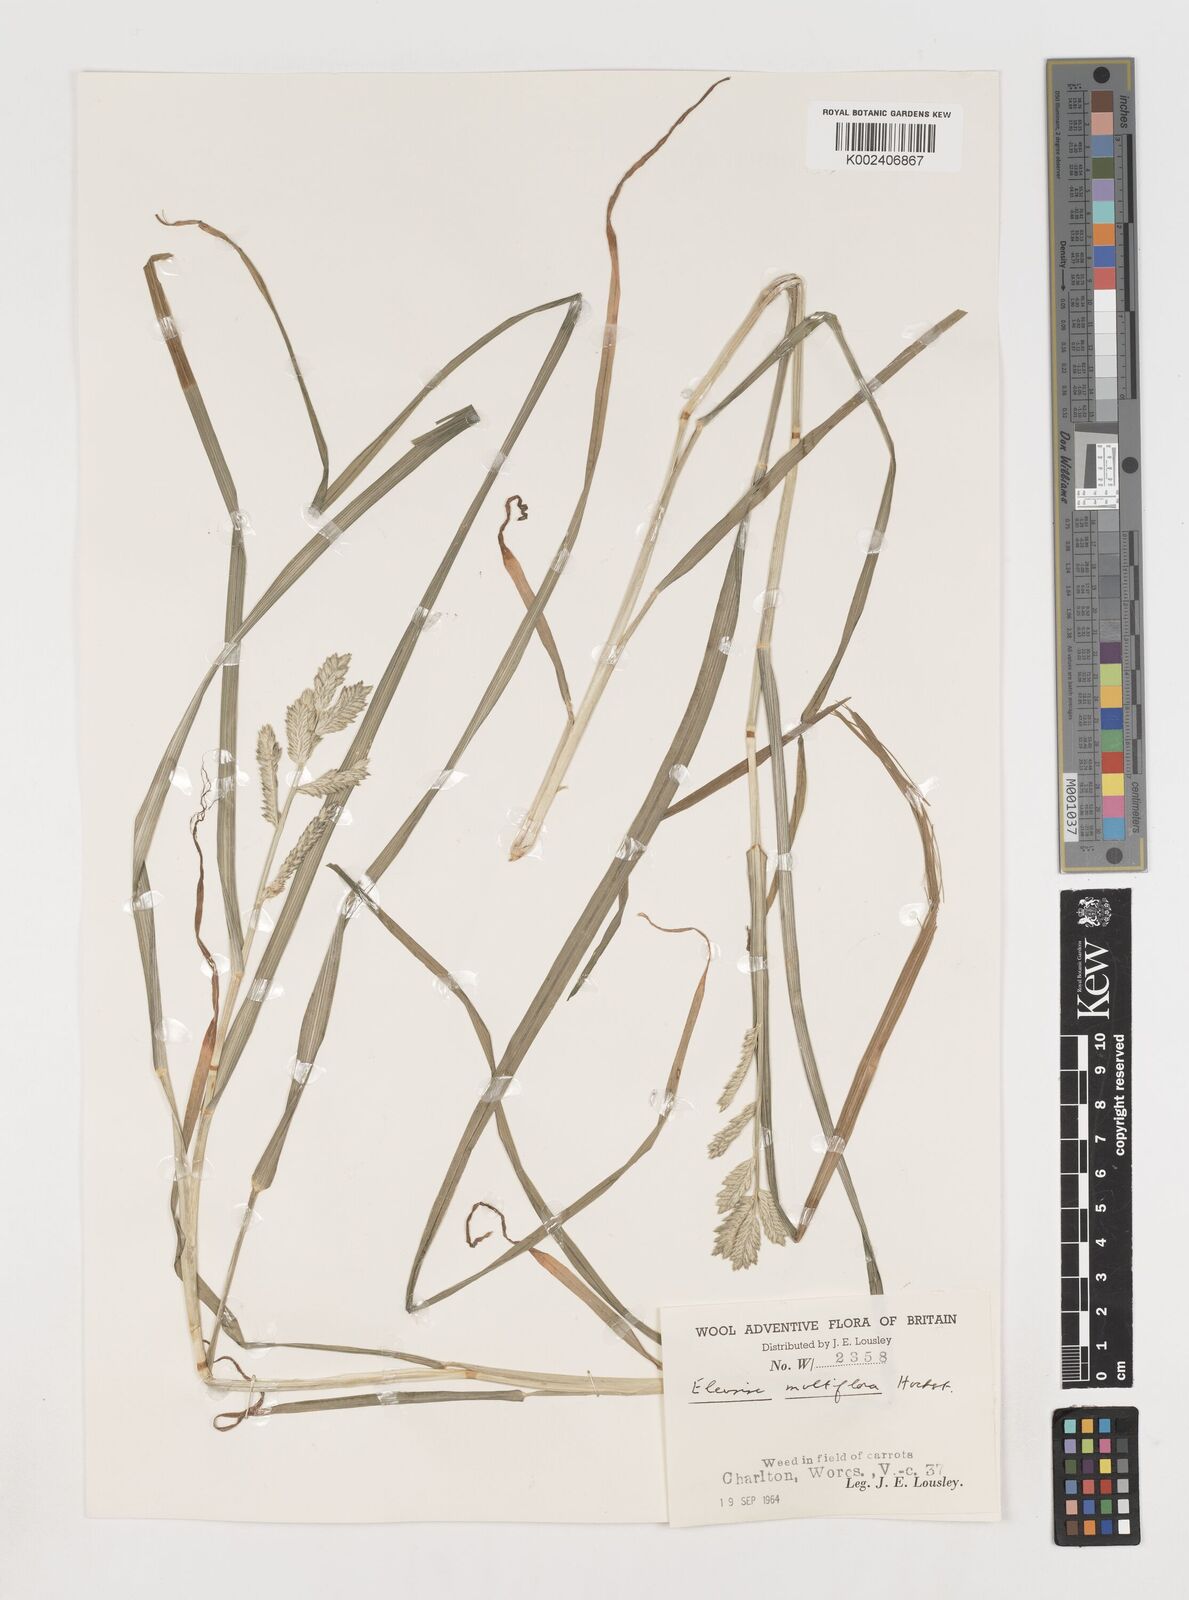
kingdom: Plantae
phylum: Tracheophyta
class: Liliopsida
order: Poales
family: Poaceae
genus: Eleusine
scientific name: Eleusine multiflora
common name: Fat-spiked yard-grass
